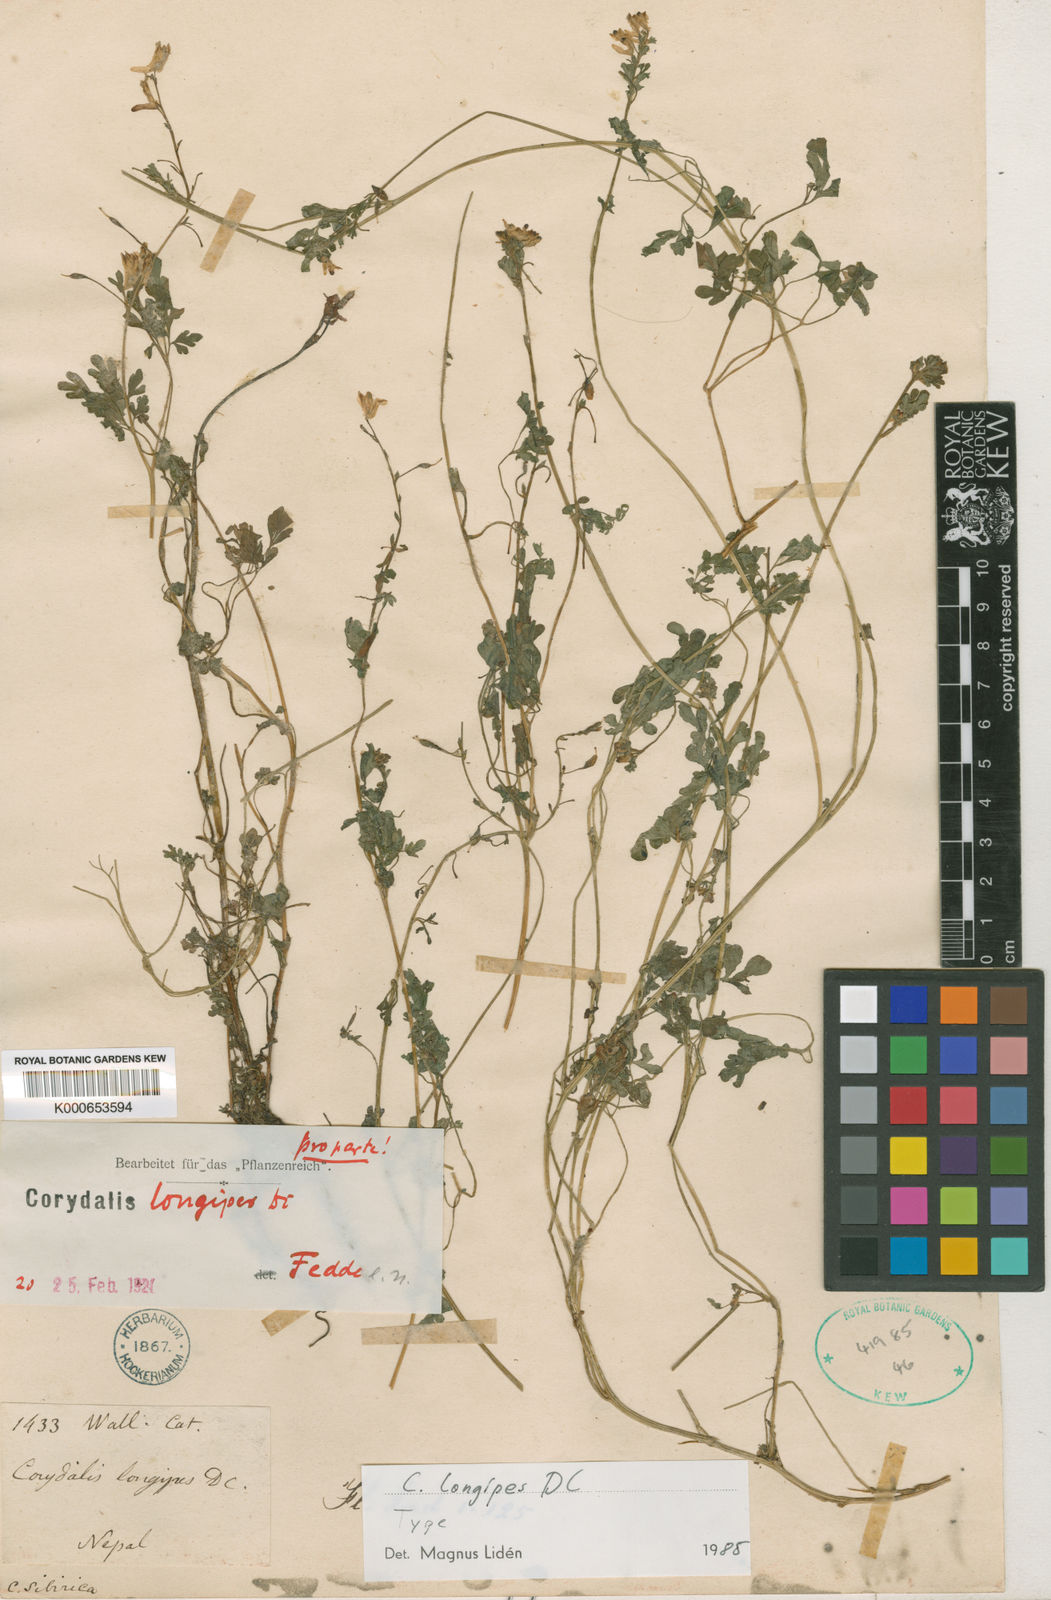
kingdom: Plantae
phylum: Tracheophyta
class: Magnoliopsida
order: Ranunculales
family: Papaveraceae
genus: Corydalis
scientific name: Corydalis longipes
